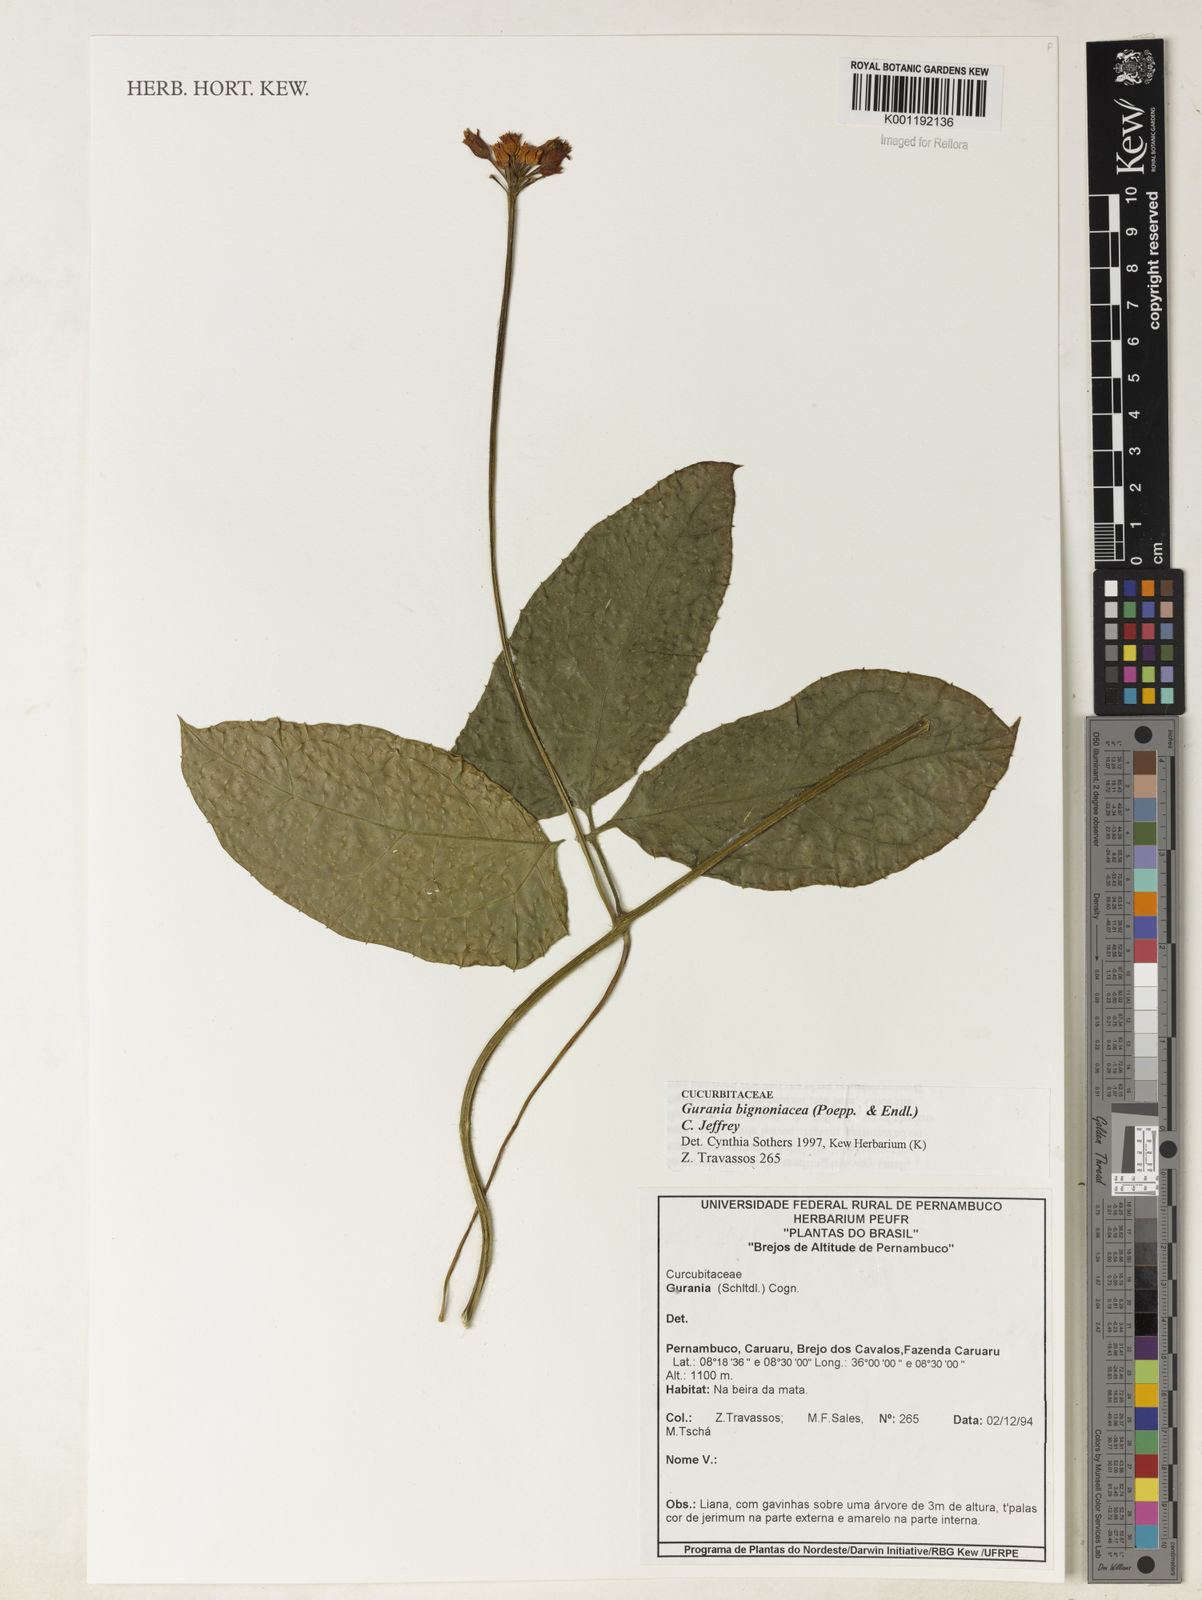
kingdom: Plantae
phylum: Tracheophyta
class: Magnoliopsida
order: Cucurbitales
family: Cucurbitaceae
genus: Gurania
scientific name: Gurania bignoniacea
